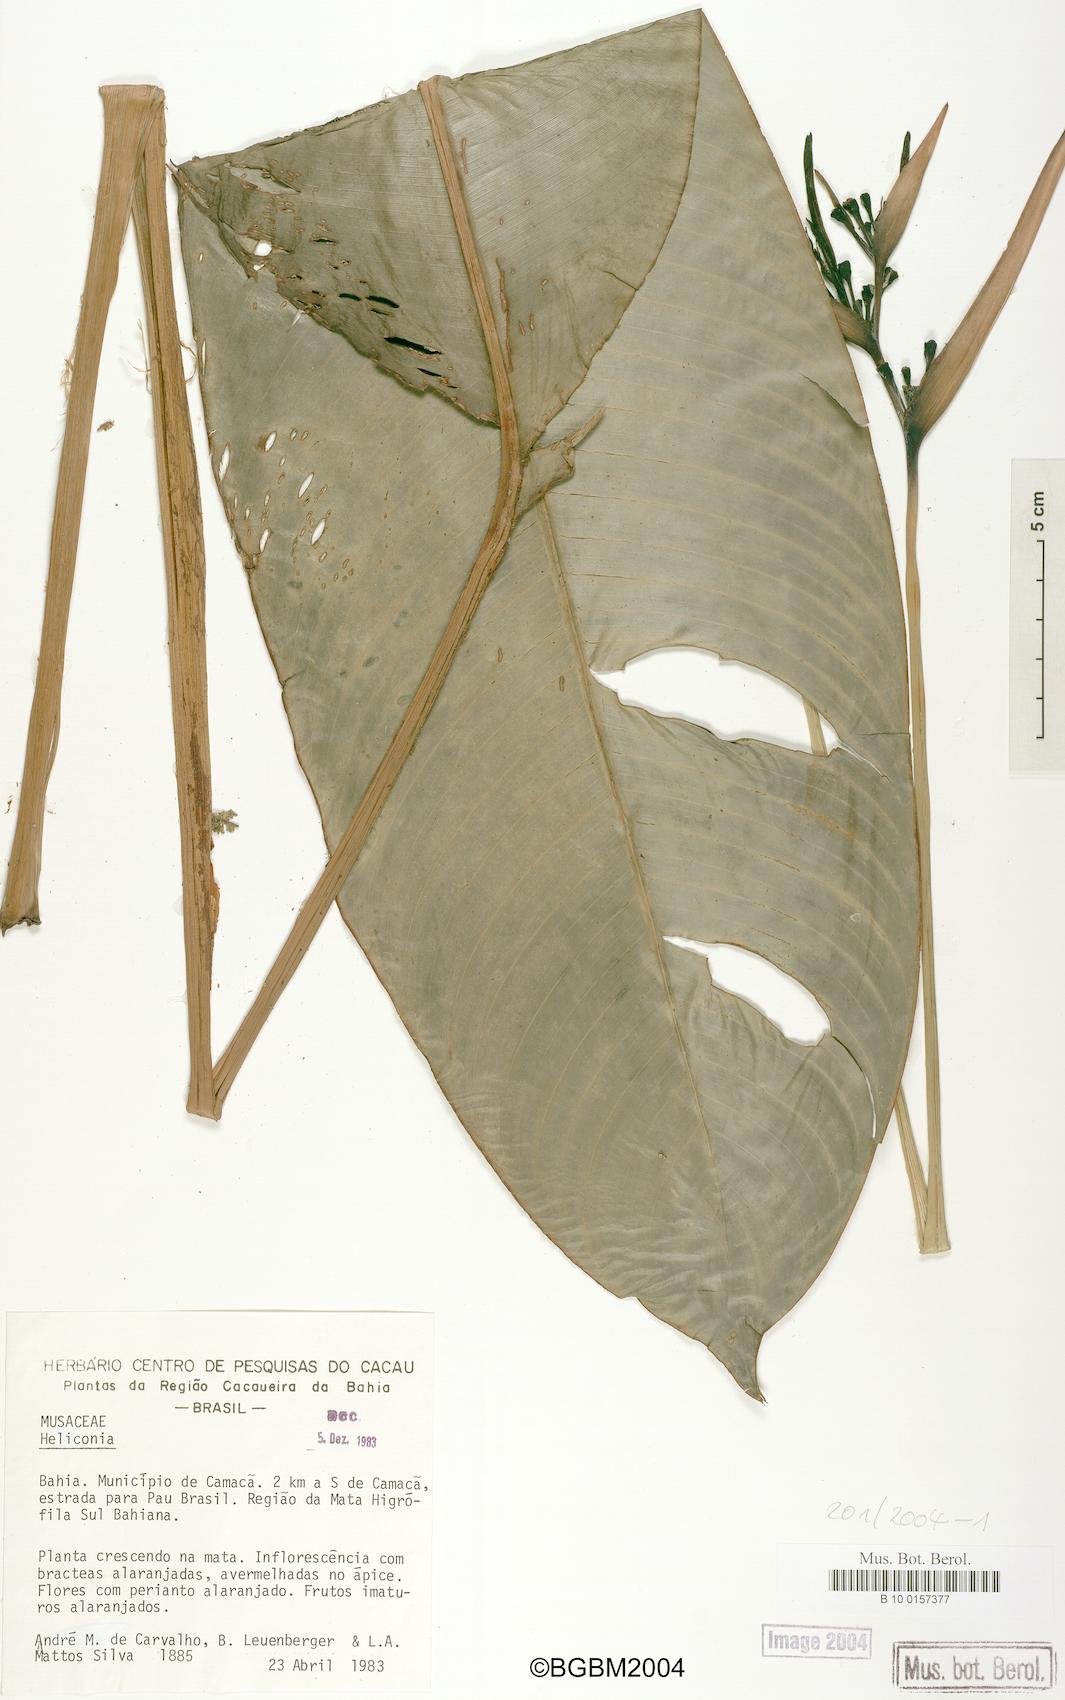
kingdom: Plantae
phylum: Tracheophyta
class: Liliopsida
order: Zingiberales
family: Heliconiaceae
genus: Heliconia
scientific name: Heliconia
